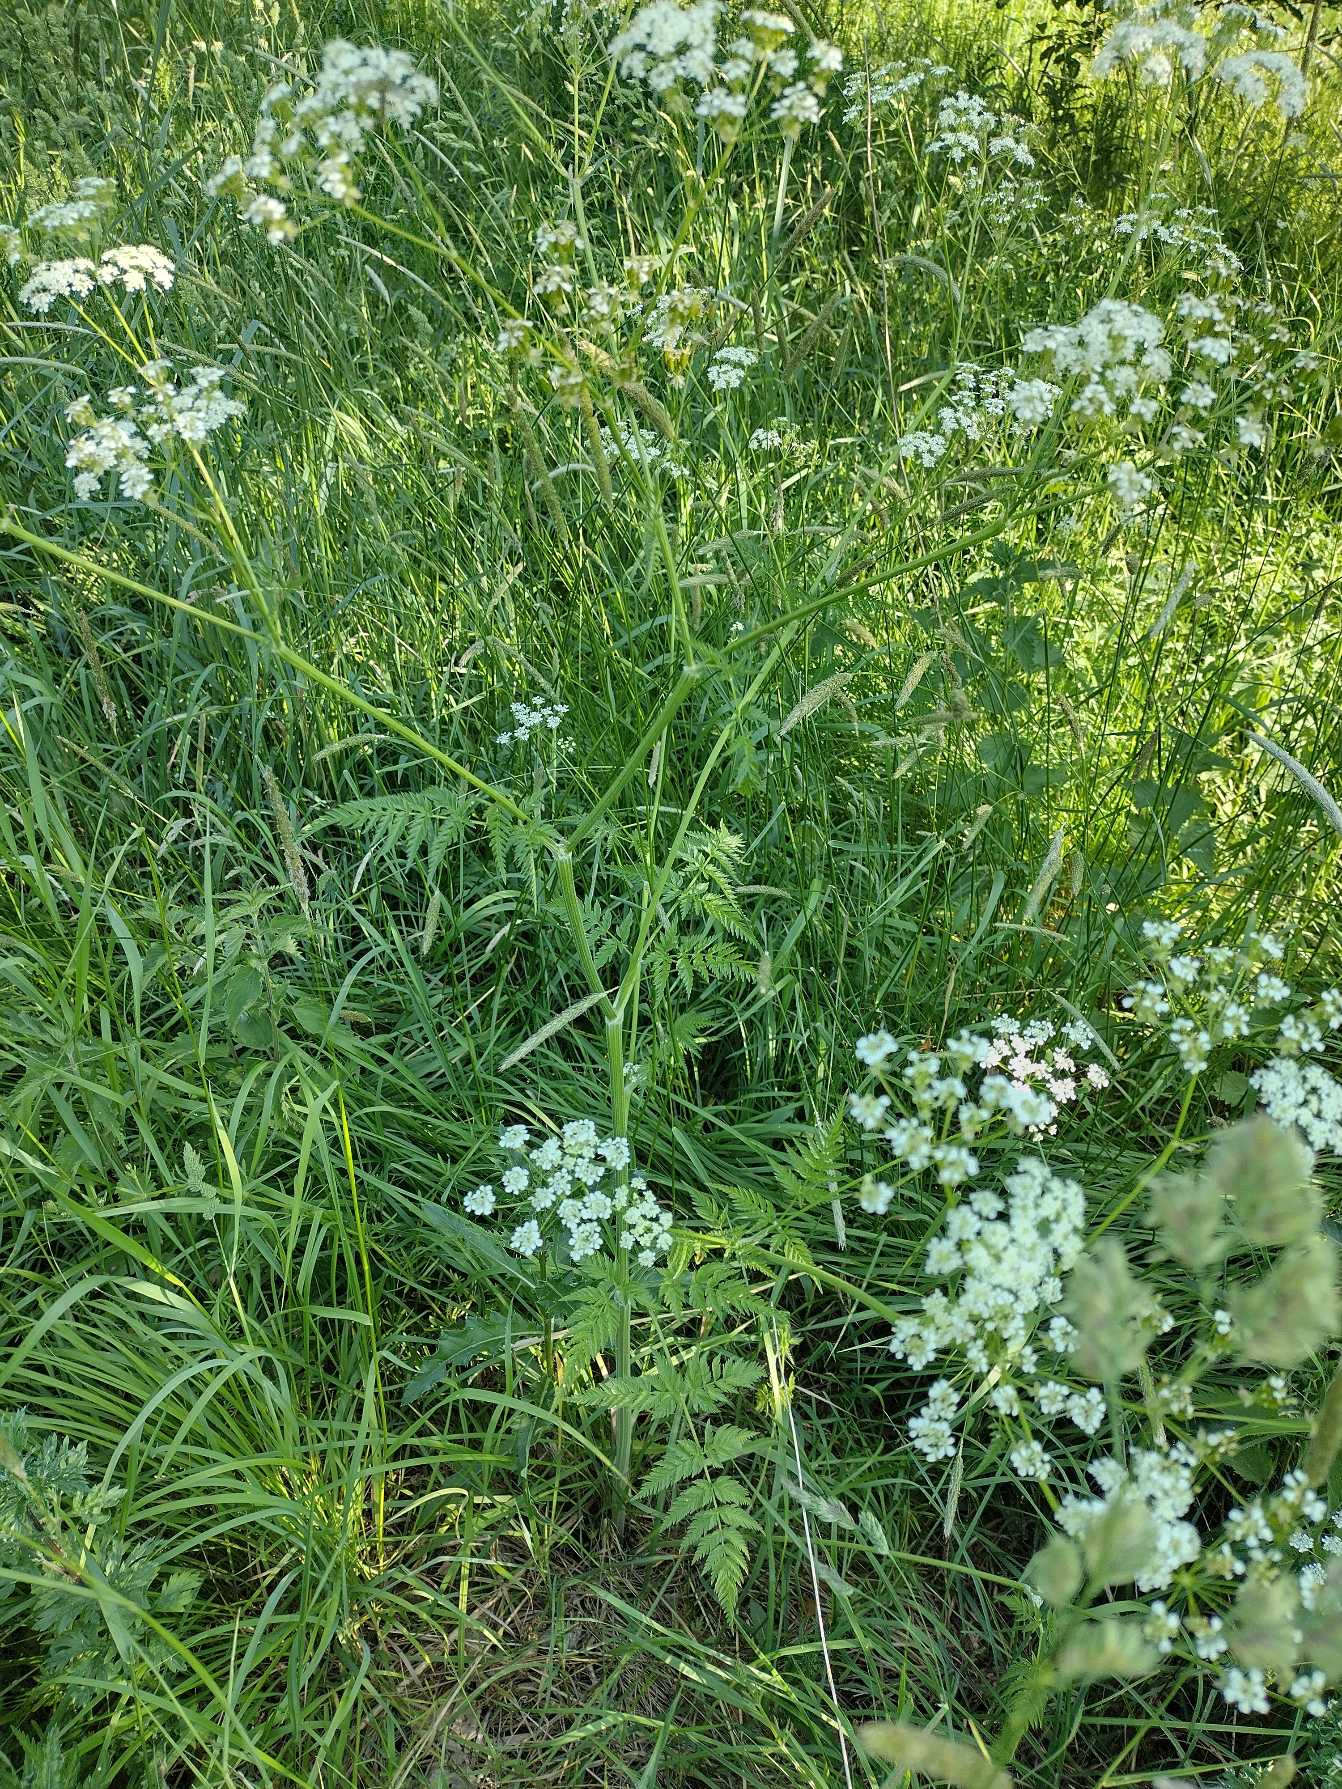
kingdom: Plantae
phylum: Tracheophyta
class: Magnoliopsida
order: Apiales
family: Apiaceae
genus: Anthriscus
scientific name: Anthriscus sylvestris
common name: Vild kørvel
